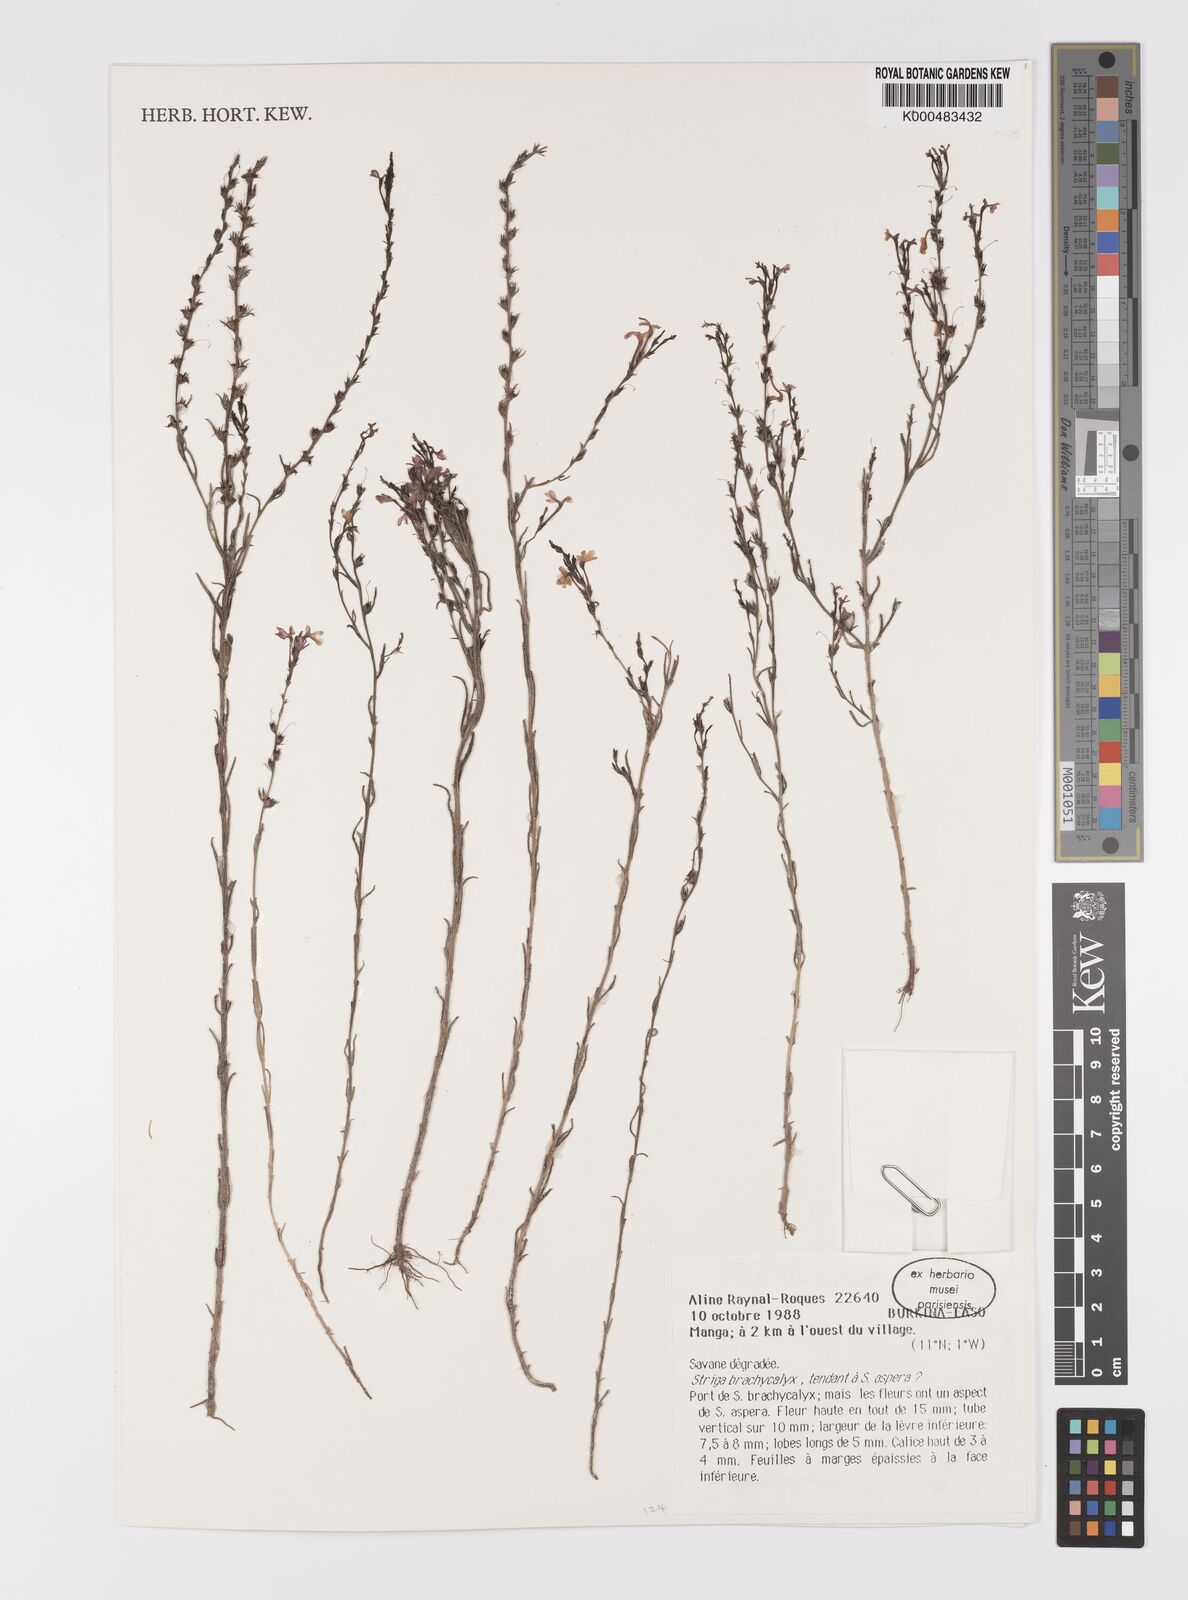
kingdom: Plantae
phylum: Tracheophyta
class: Magnoliopsida
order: Lamiales
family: Orobanchaceae
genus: Striga
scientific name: Striga brachycalyx
